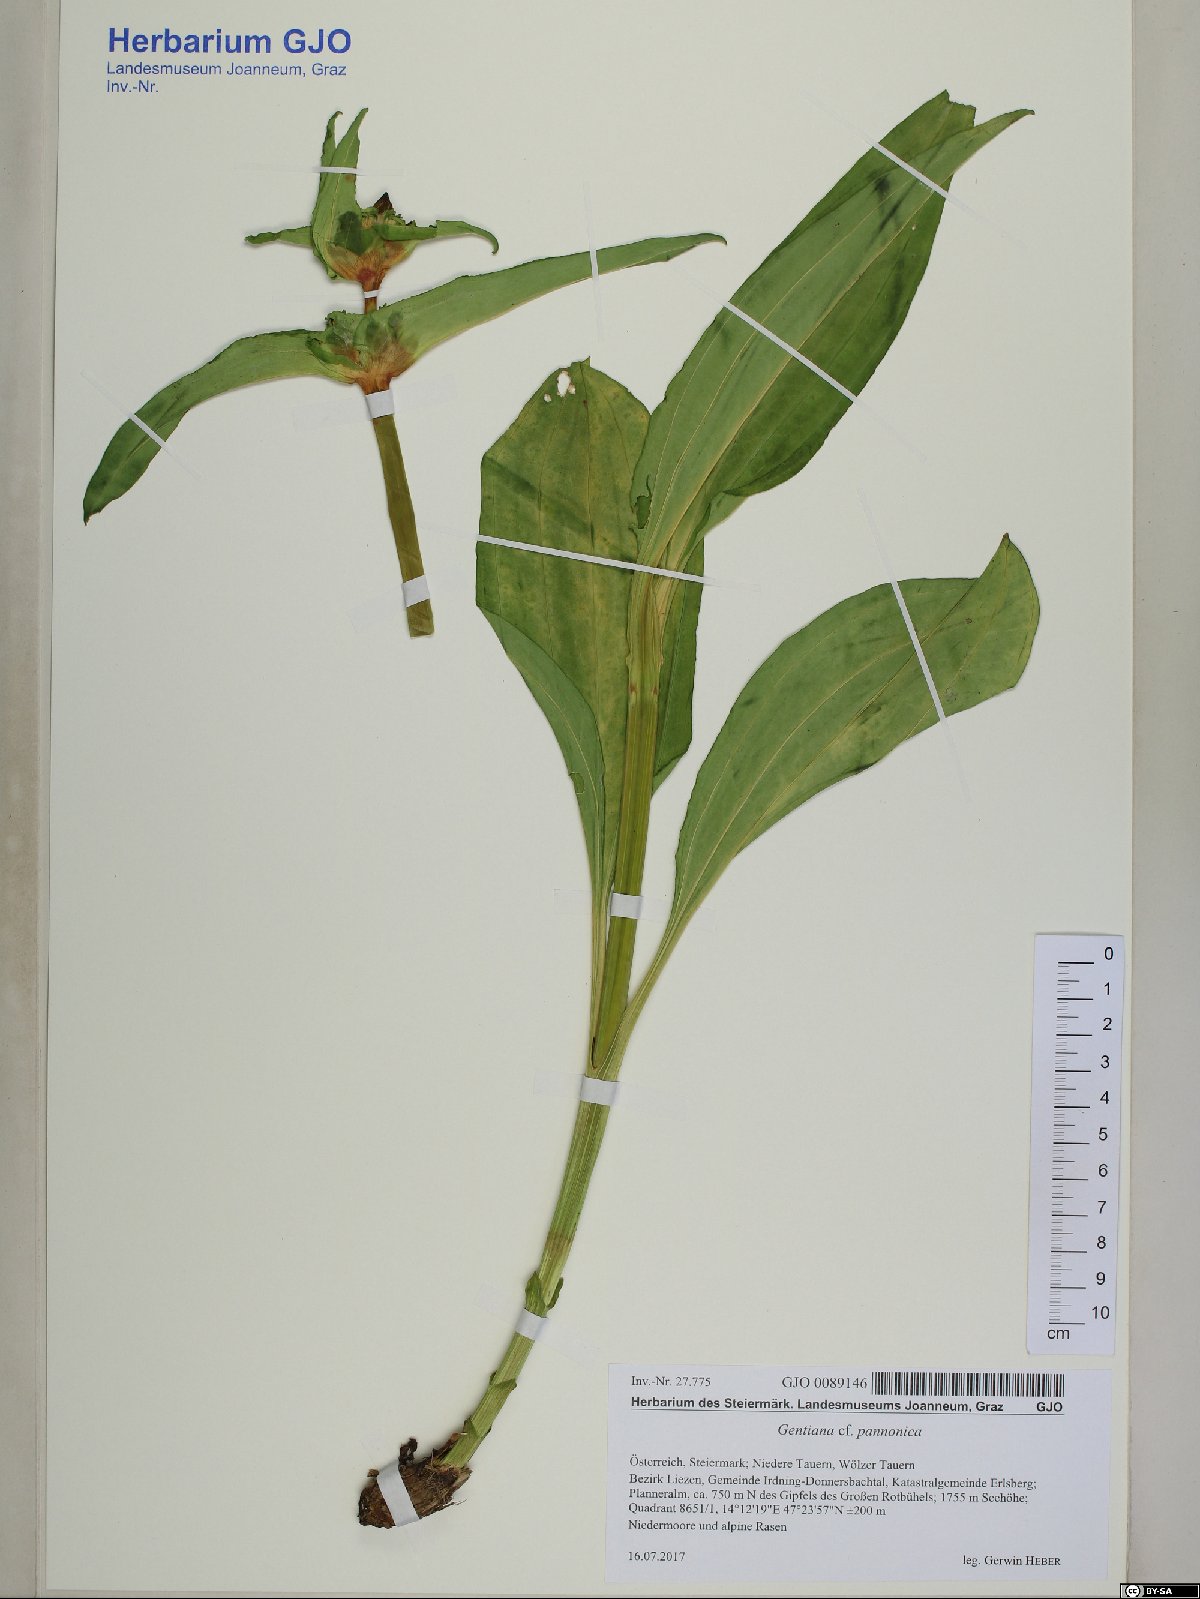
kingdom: Plantae
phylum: Tracheophyta
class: Magnoliopsida
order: Gentianales
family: Gentianaceae
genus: Gentiana
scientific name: Gentiana pannonica
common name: Hungarian gentian
